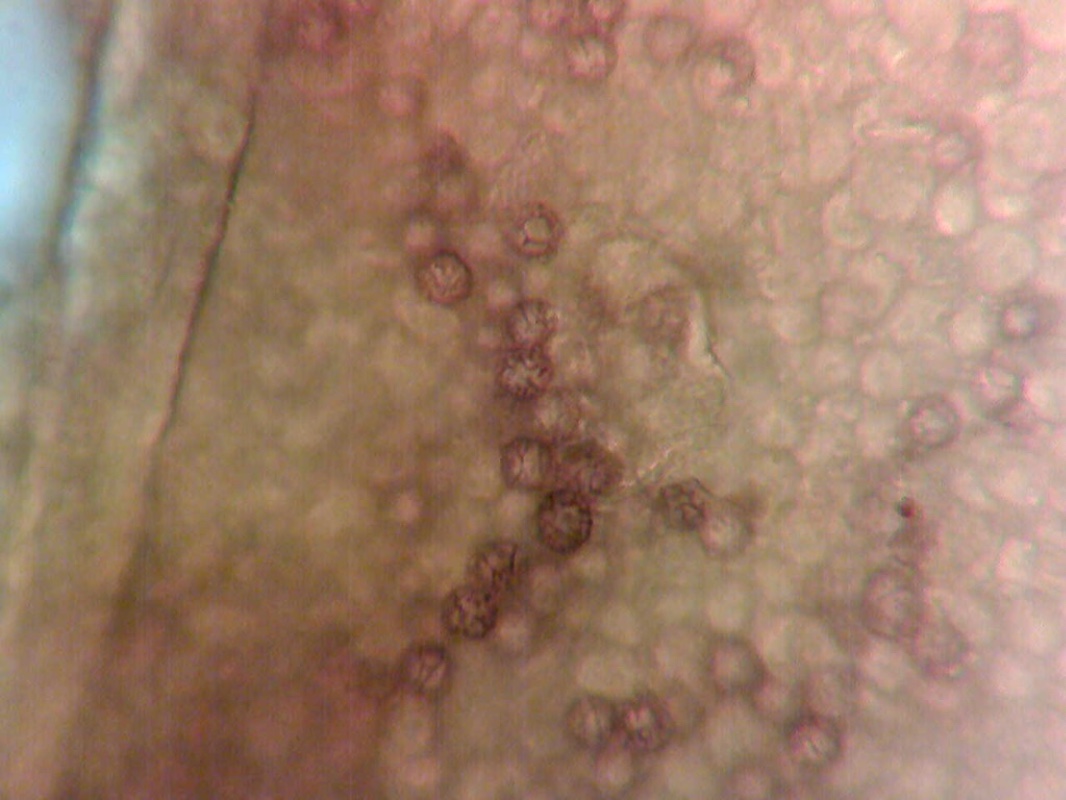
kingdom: Fungi
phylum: Basidiomycota
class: Agaricomycetes
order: Russulales
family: Russulaceae
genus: Lactarius
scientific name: Lactarius flexuosus
